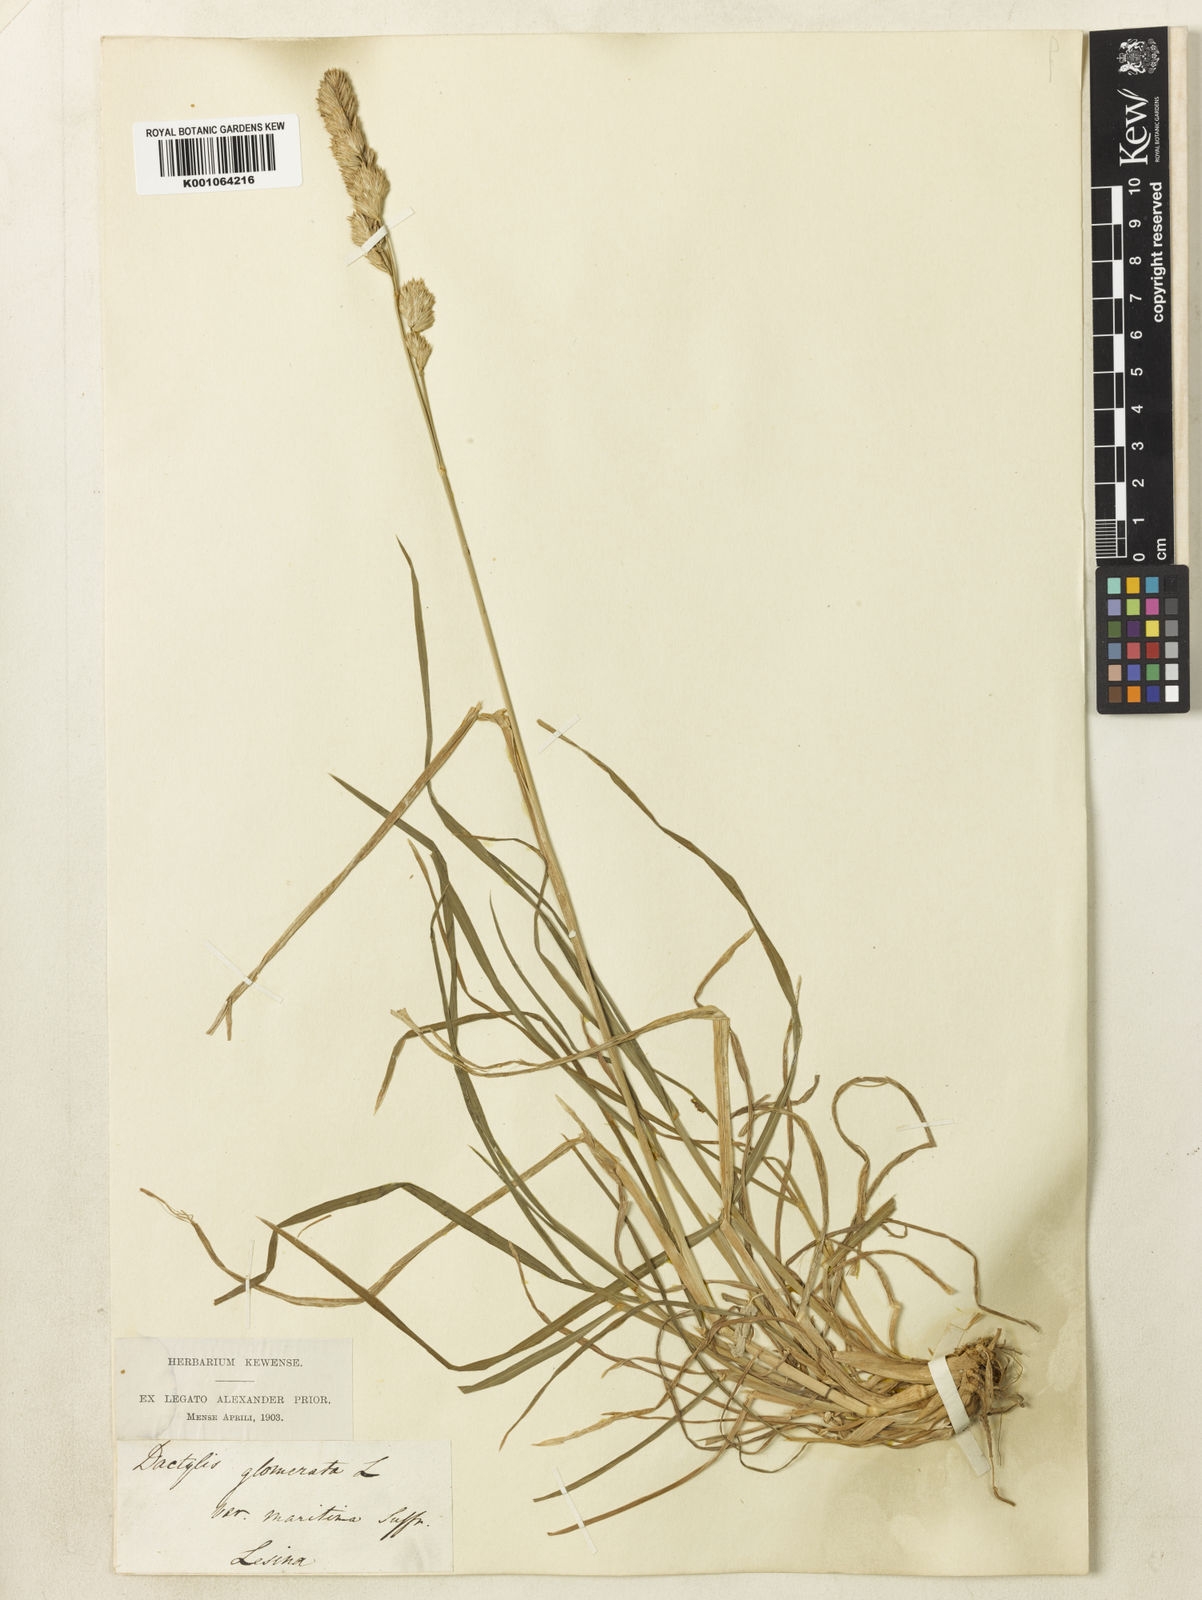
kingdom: Plantae
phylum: Tracheophyta
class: Liliopsida
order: Poales
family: Poaceae
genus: Dactylis
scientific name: Dactylis glomerata
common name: Orchardgrass
